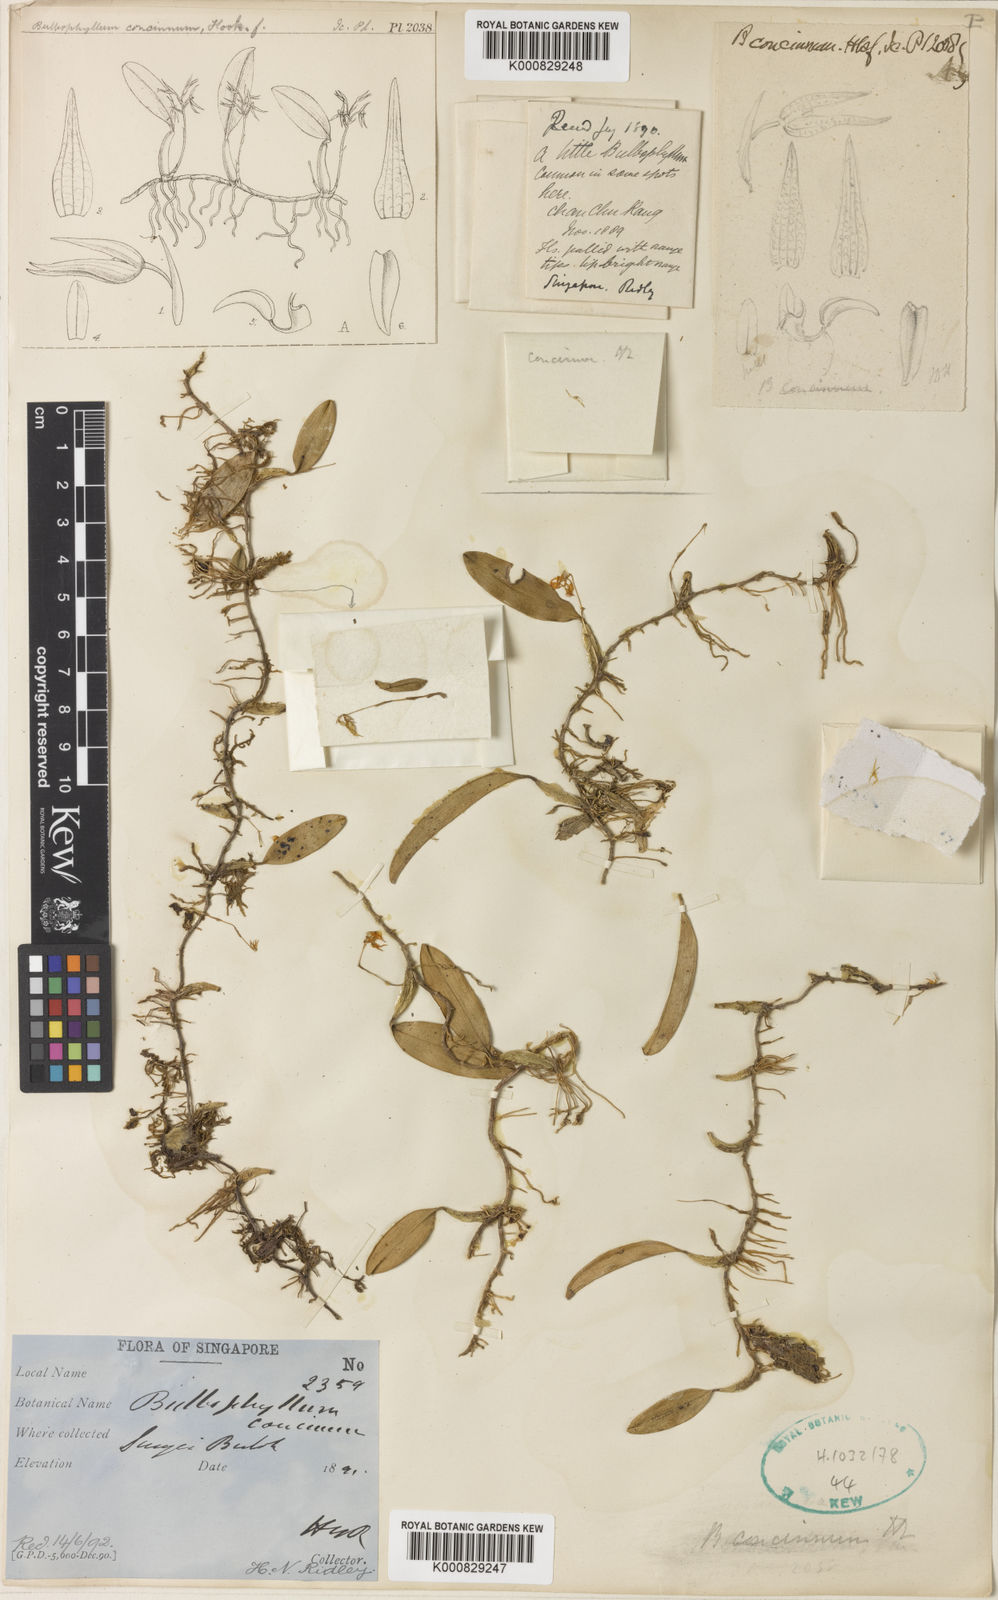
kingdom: Plantae
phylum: Tracheophyta
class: Liliopsida
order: Asparagales
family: Orchidaceae
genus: Bulbophyllum
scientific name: Bulbophyllum concinnum
